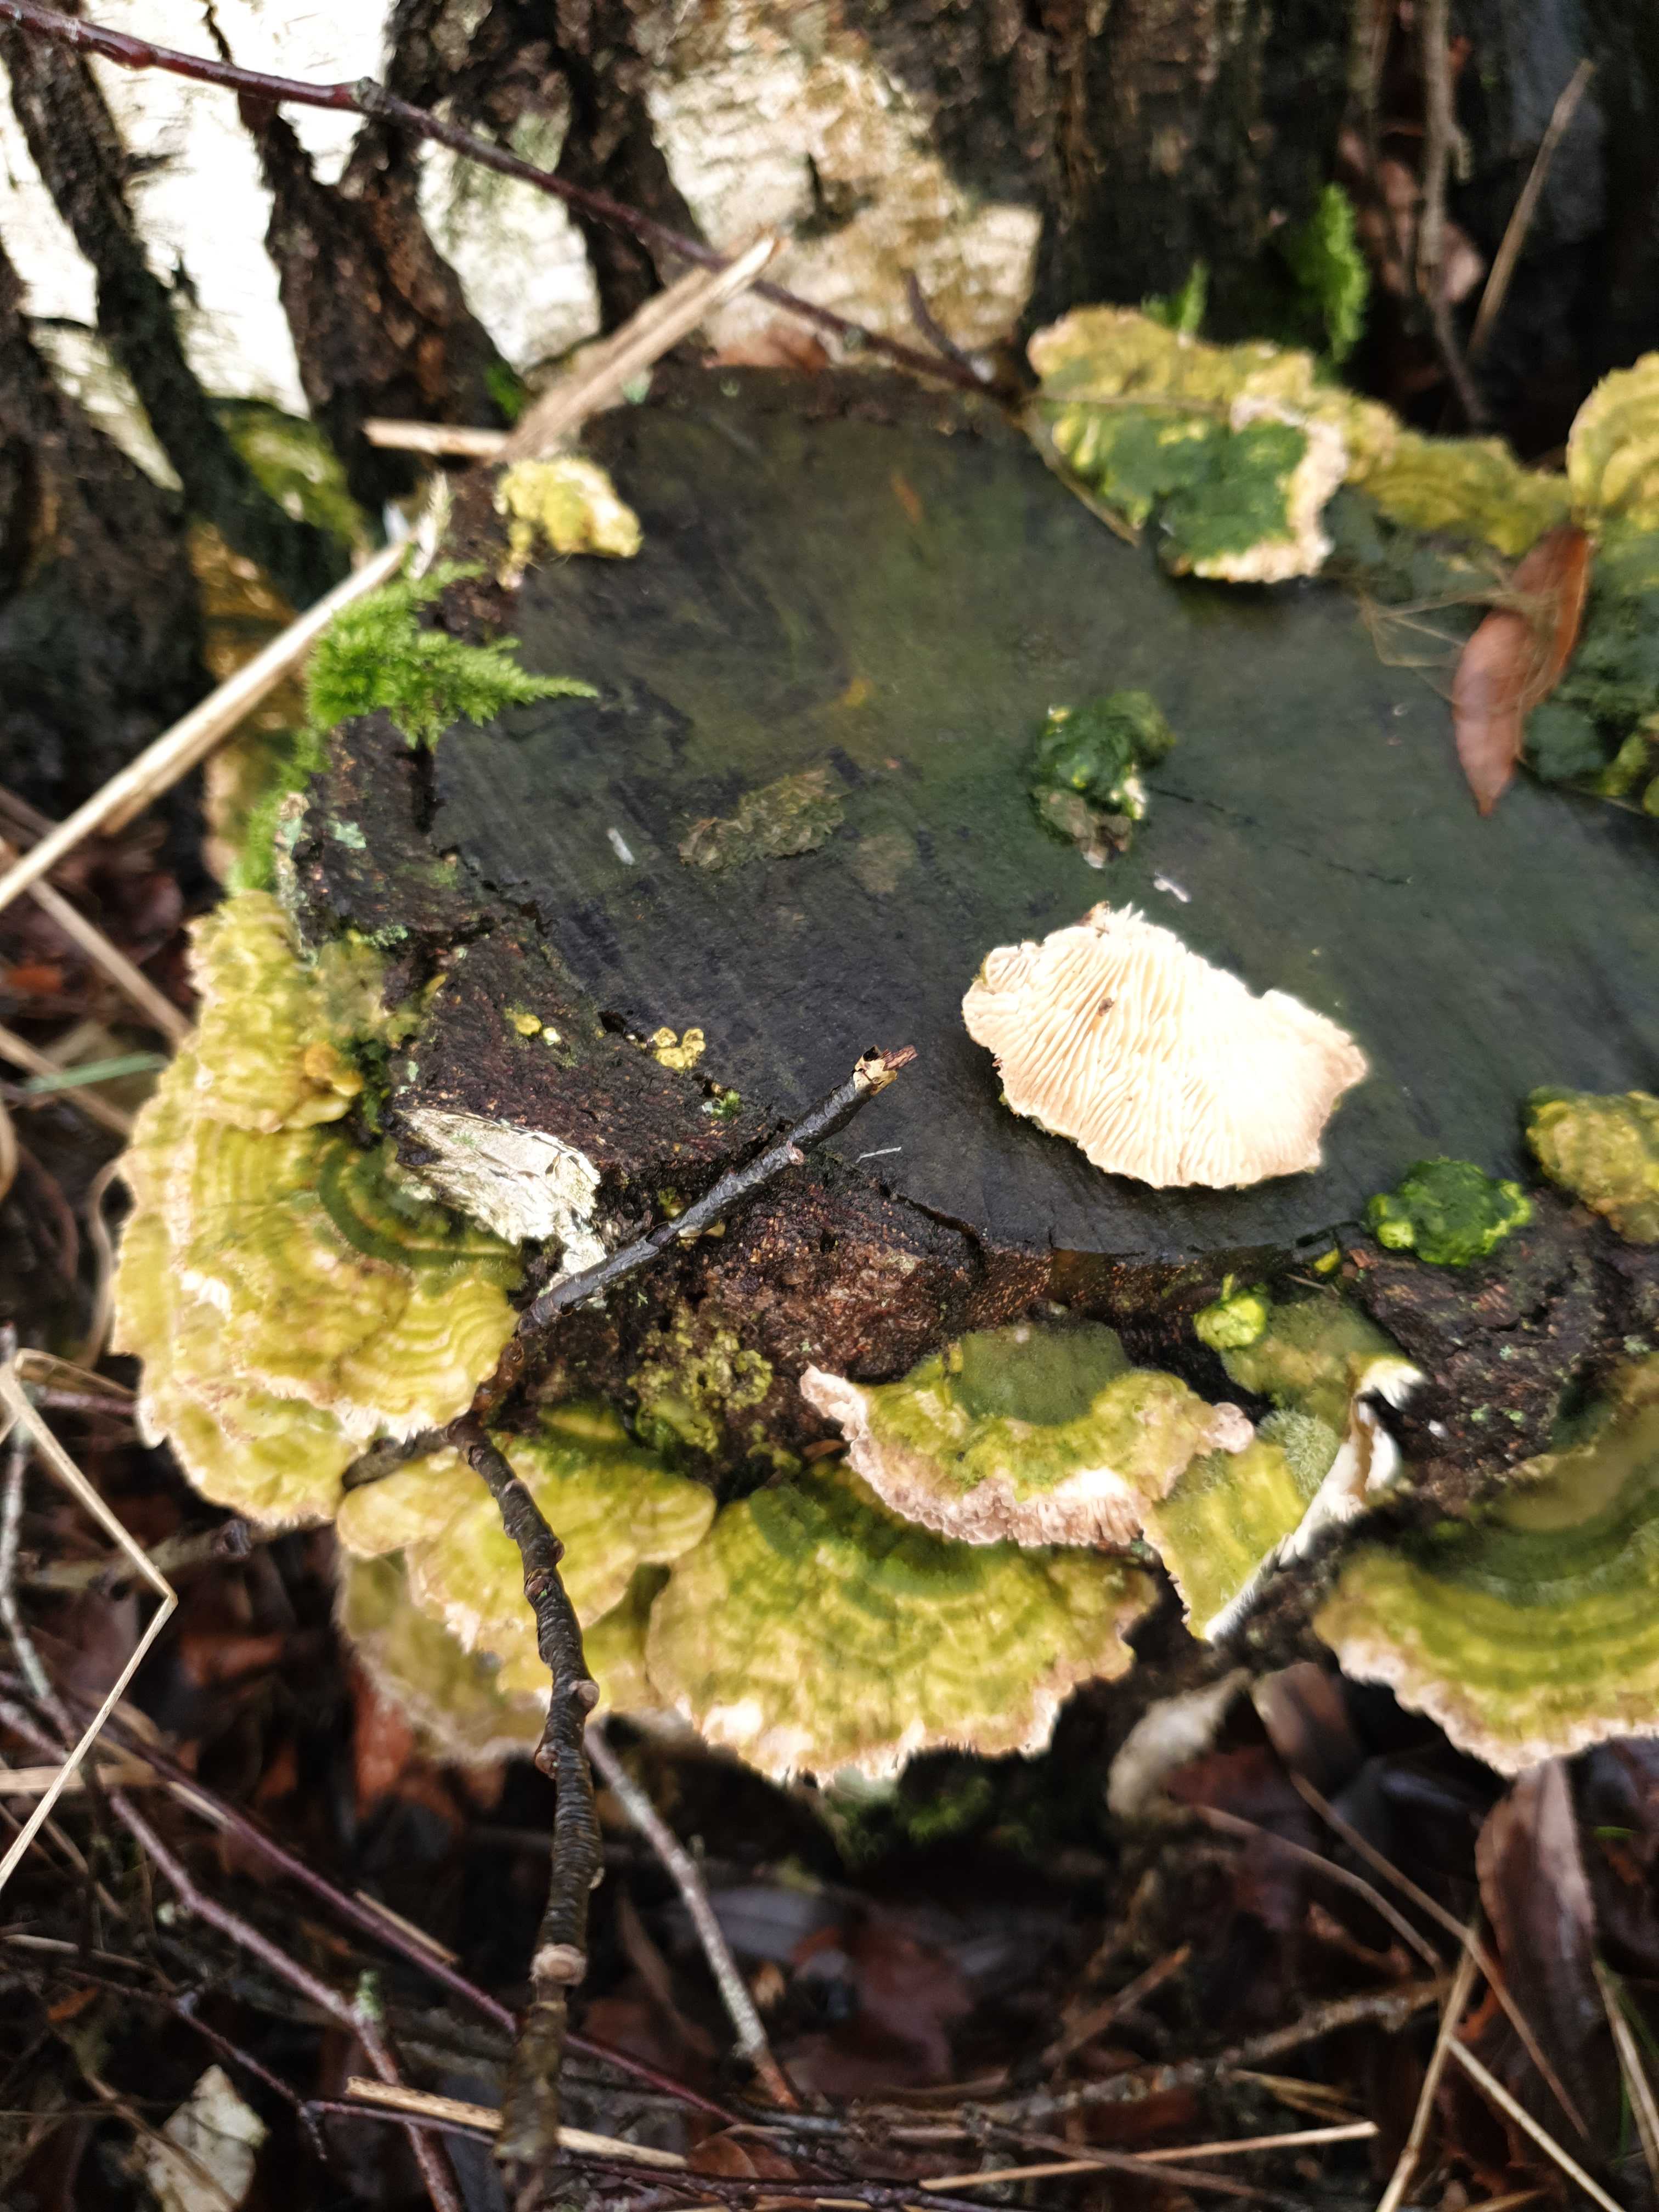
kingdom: Fungi
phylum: Basidiomycota
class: Agaricomycetes
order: Polyporales
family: Polyporaceae
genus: Lenzites
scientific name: Lenzites betulinus
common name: birke-læderporesvamp
